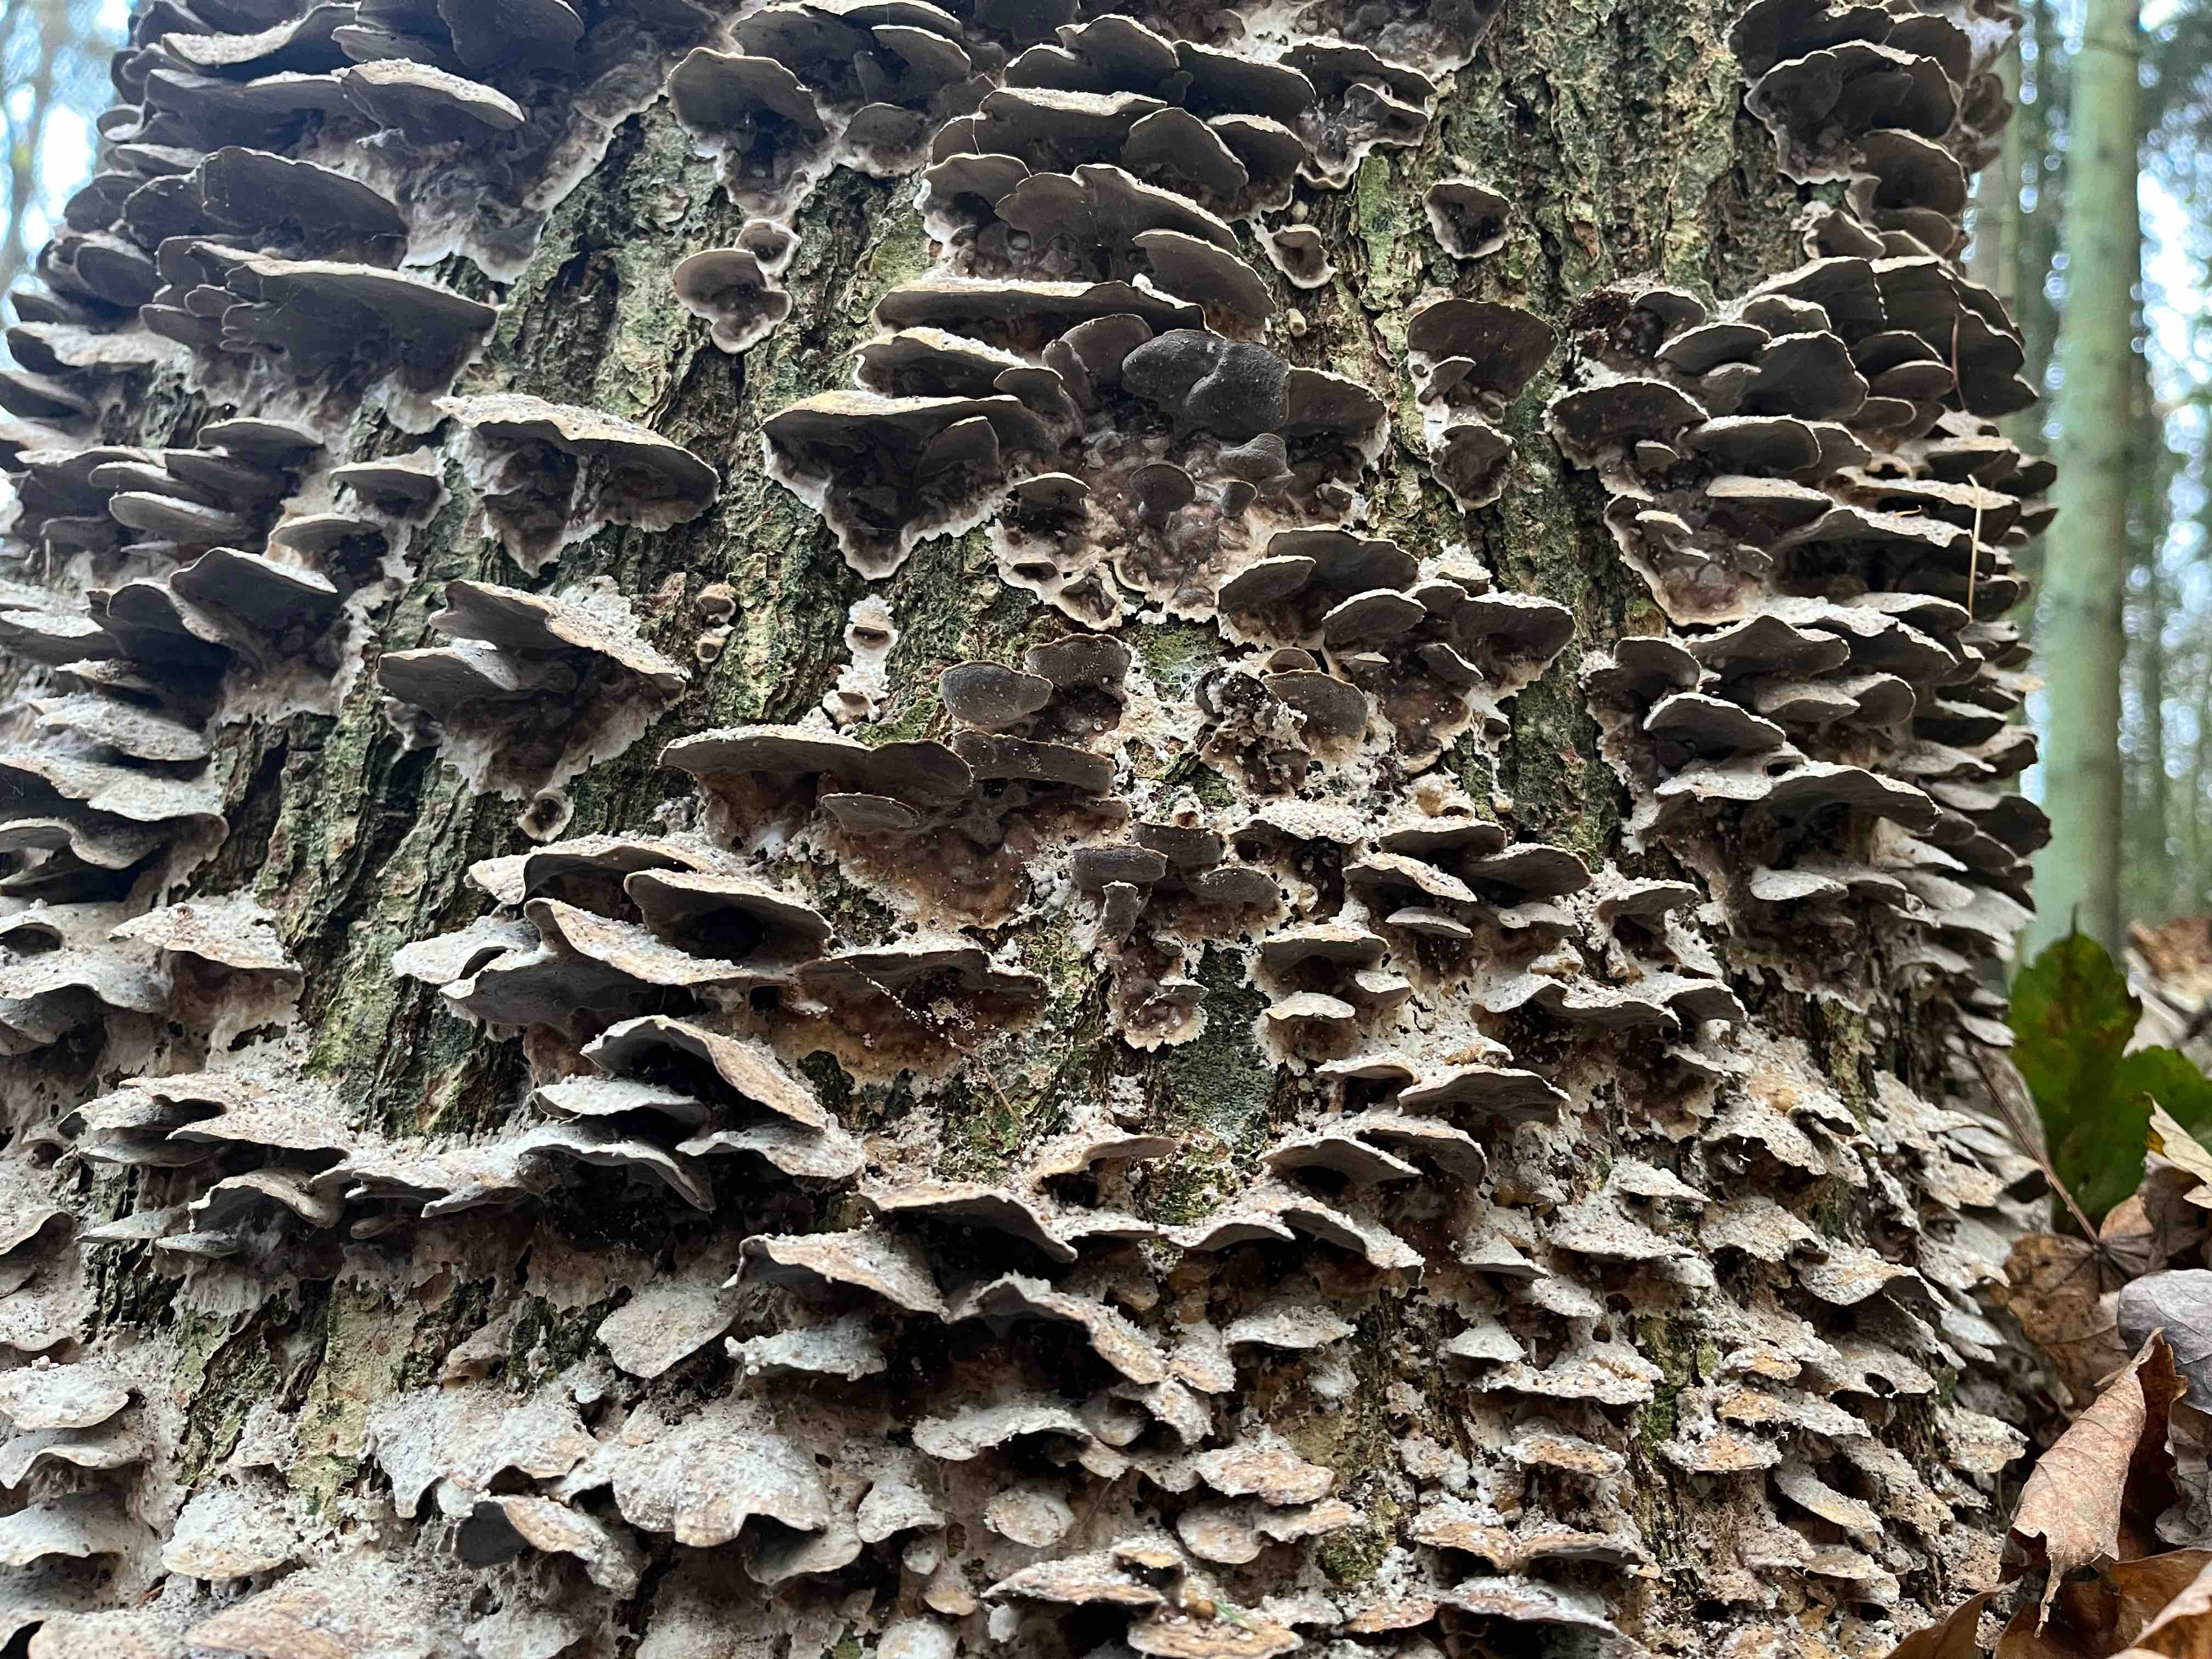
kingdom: Fungi
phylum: Basidiomycota
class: Agaricomycetes
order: Polyporales
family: Phanerochaetaceae
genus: Bjerkandera
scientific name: Bjerkandera adusta
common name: sveden sodporesvamp
